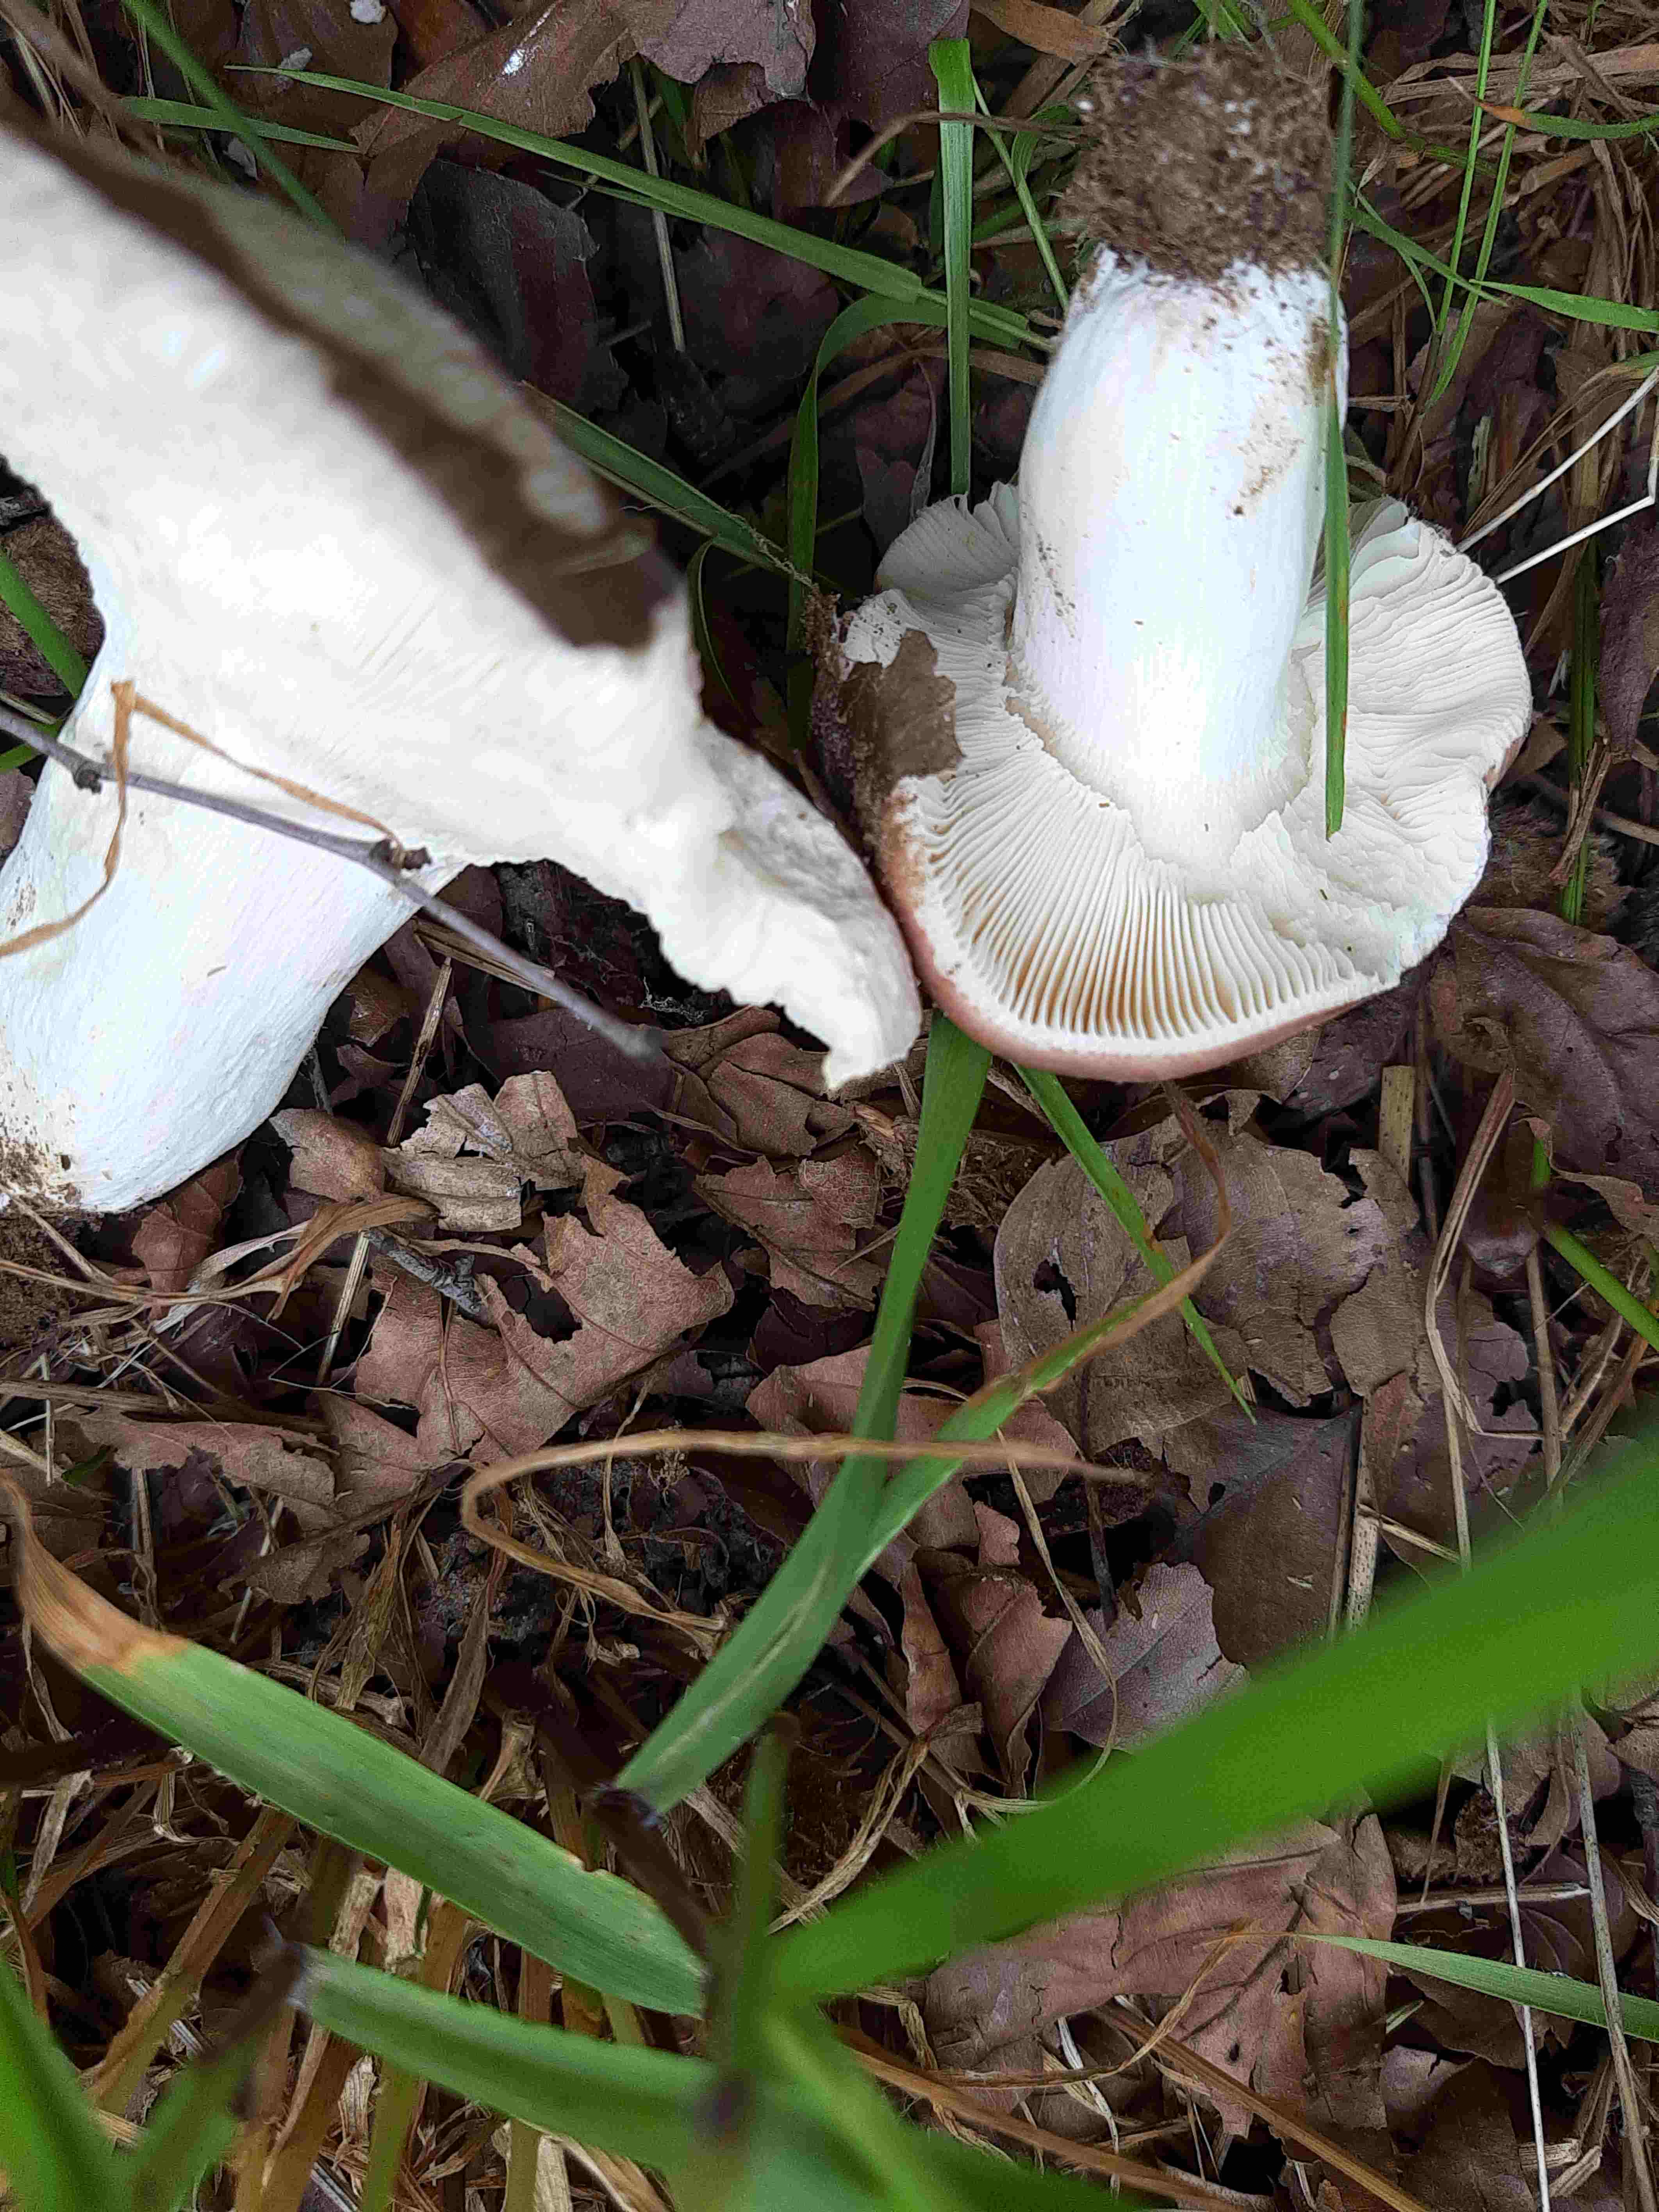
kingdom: Fungi
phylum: Basidiomycota
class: Agaricomycetes
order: Russulales
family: Russulaceae
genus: Russula
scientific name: Russula vesca
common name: spiselig skørhat
